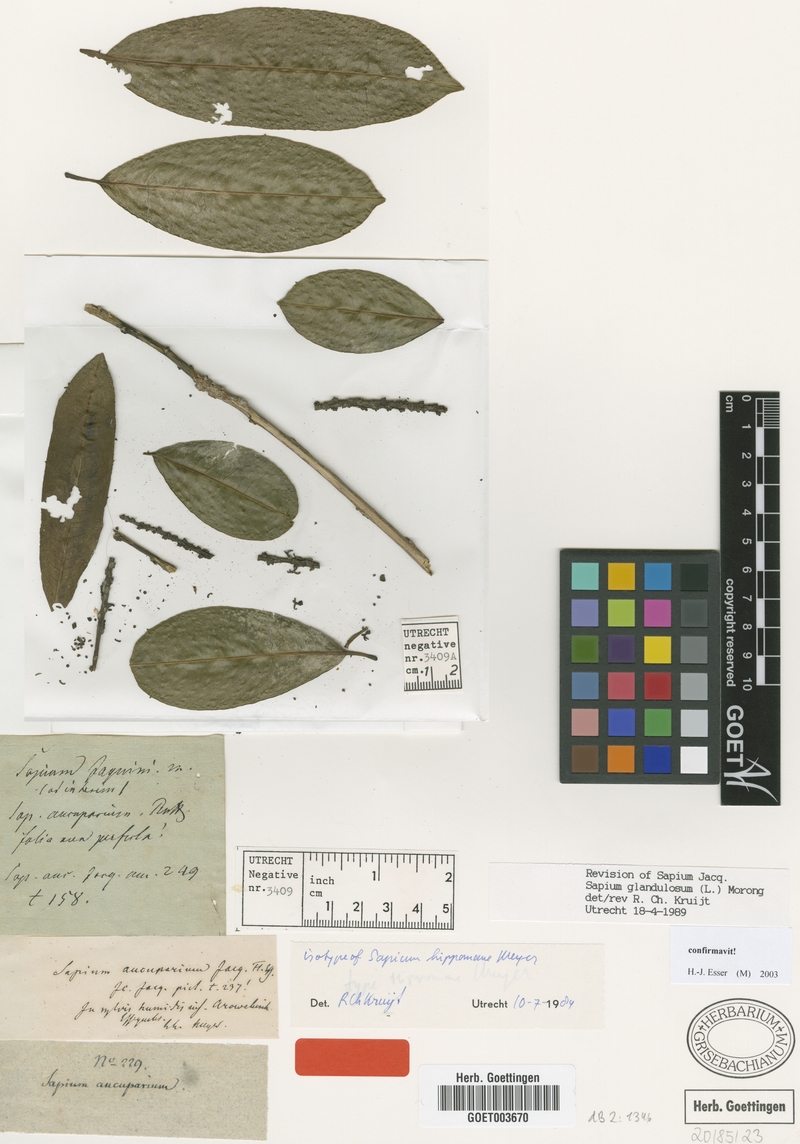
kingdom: Plantae
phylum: Tracheophyta
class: Magnoliopsida
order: Malpighiales
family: Euphorbiaceae
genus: Sapium
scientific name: Sapium glandulosum
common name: Milktree
